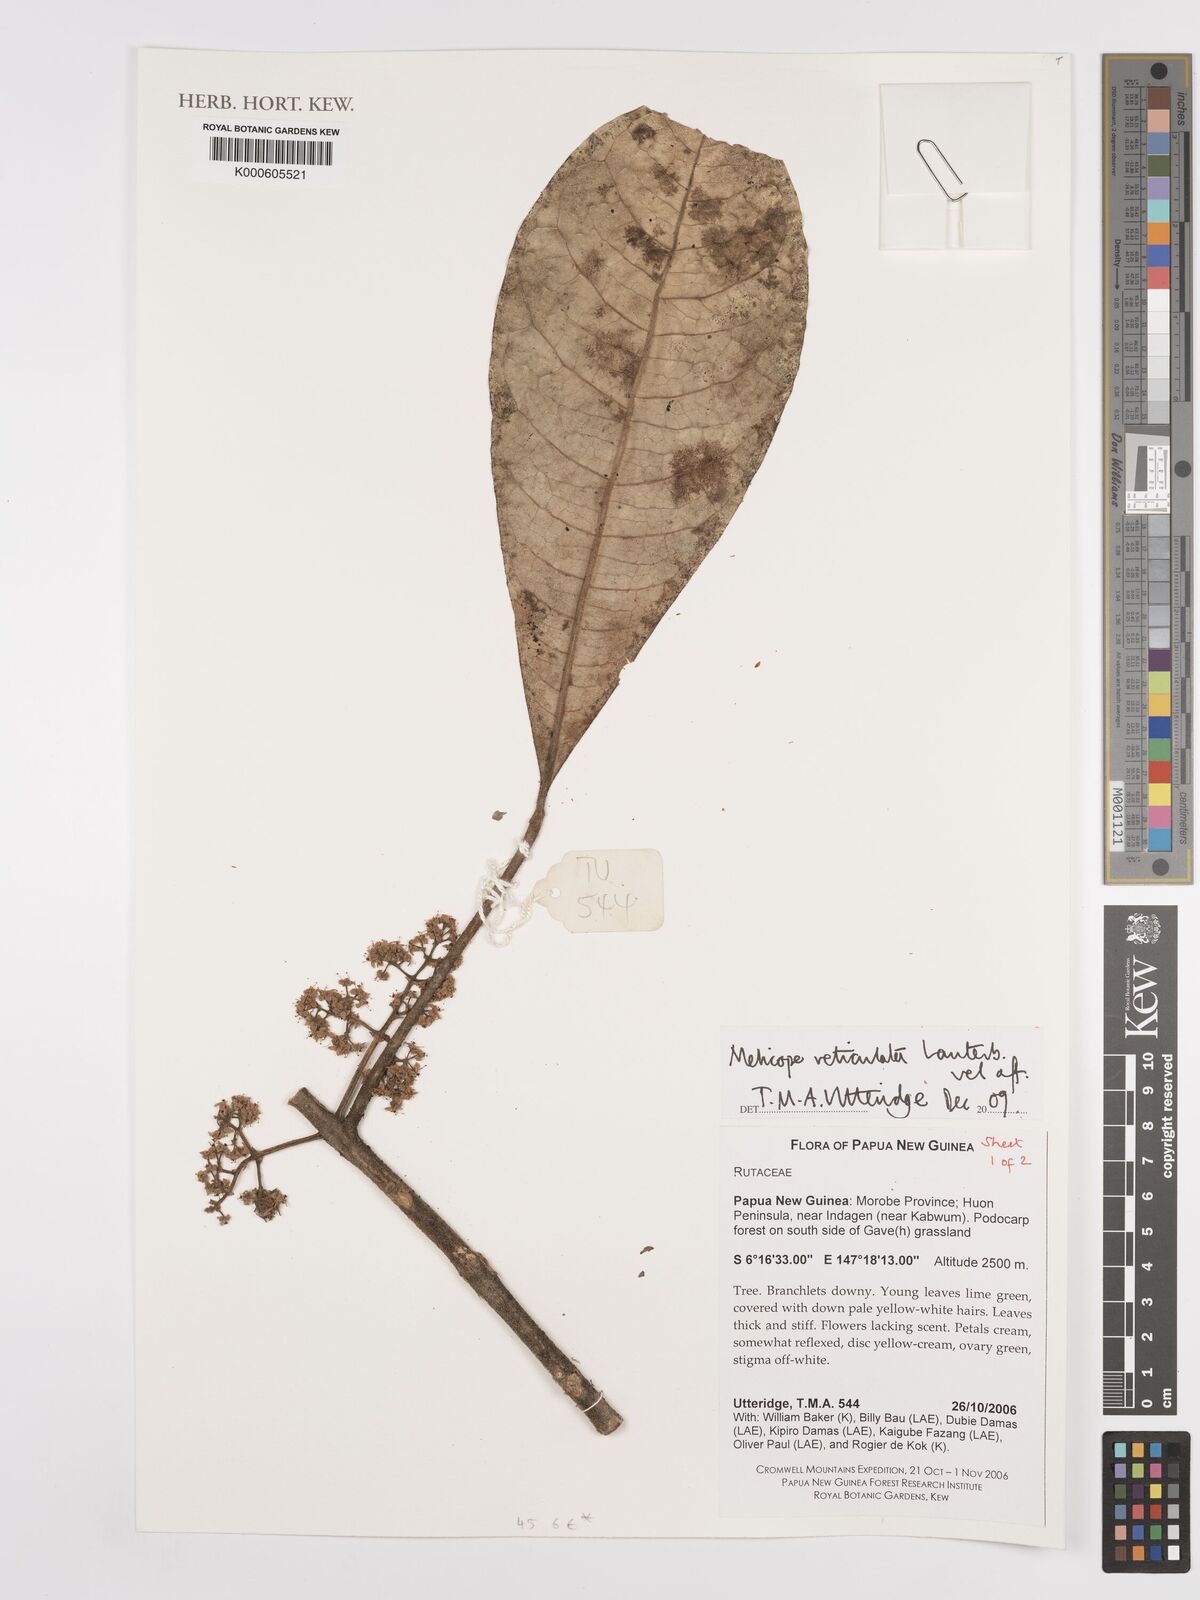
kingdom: Plantae
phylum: Tracheophyta
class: Magnoliopsida
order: Sapindales
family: Rutaceae
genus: Melicope
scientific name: Melicope reticulata
